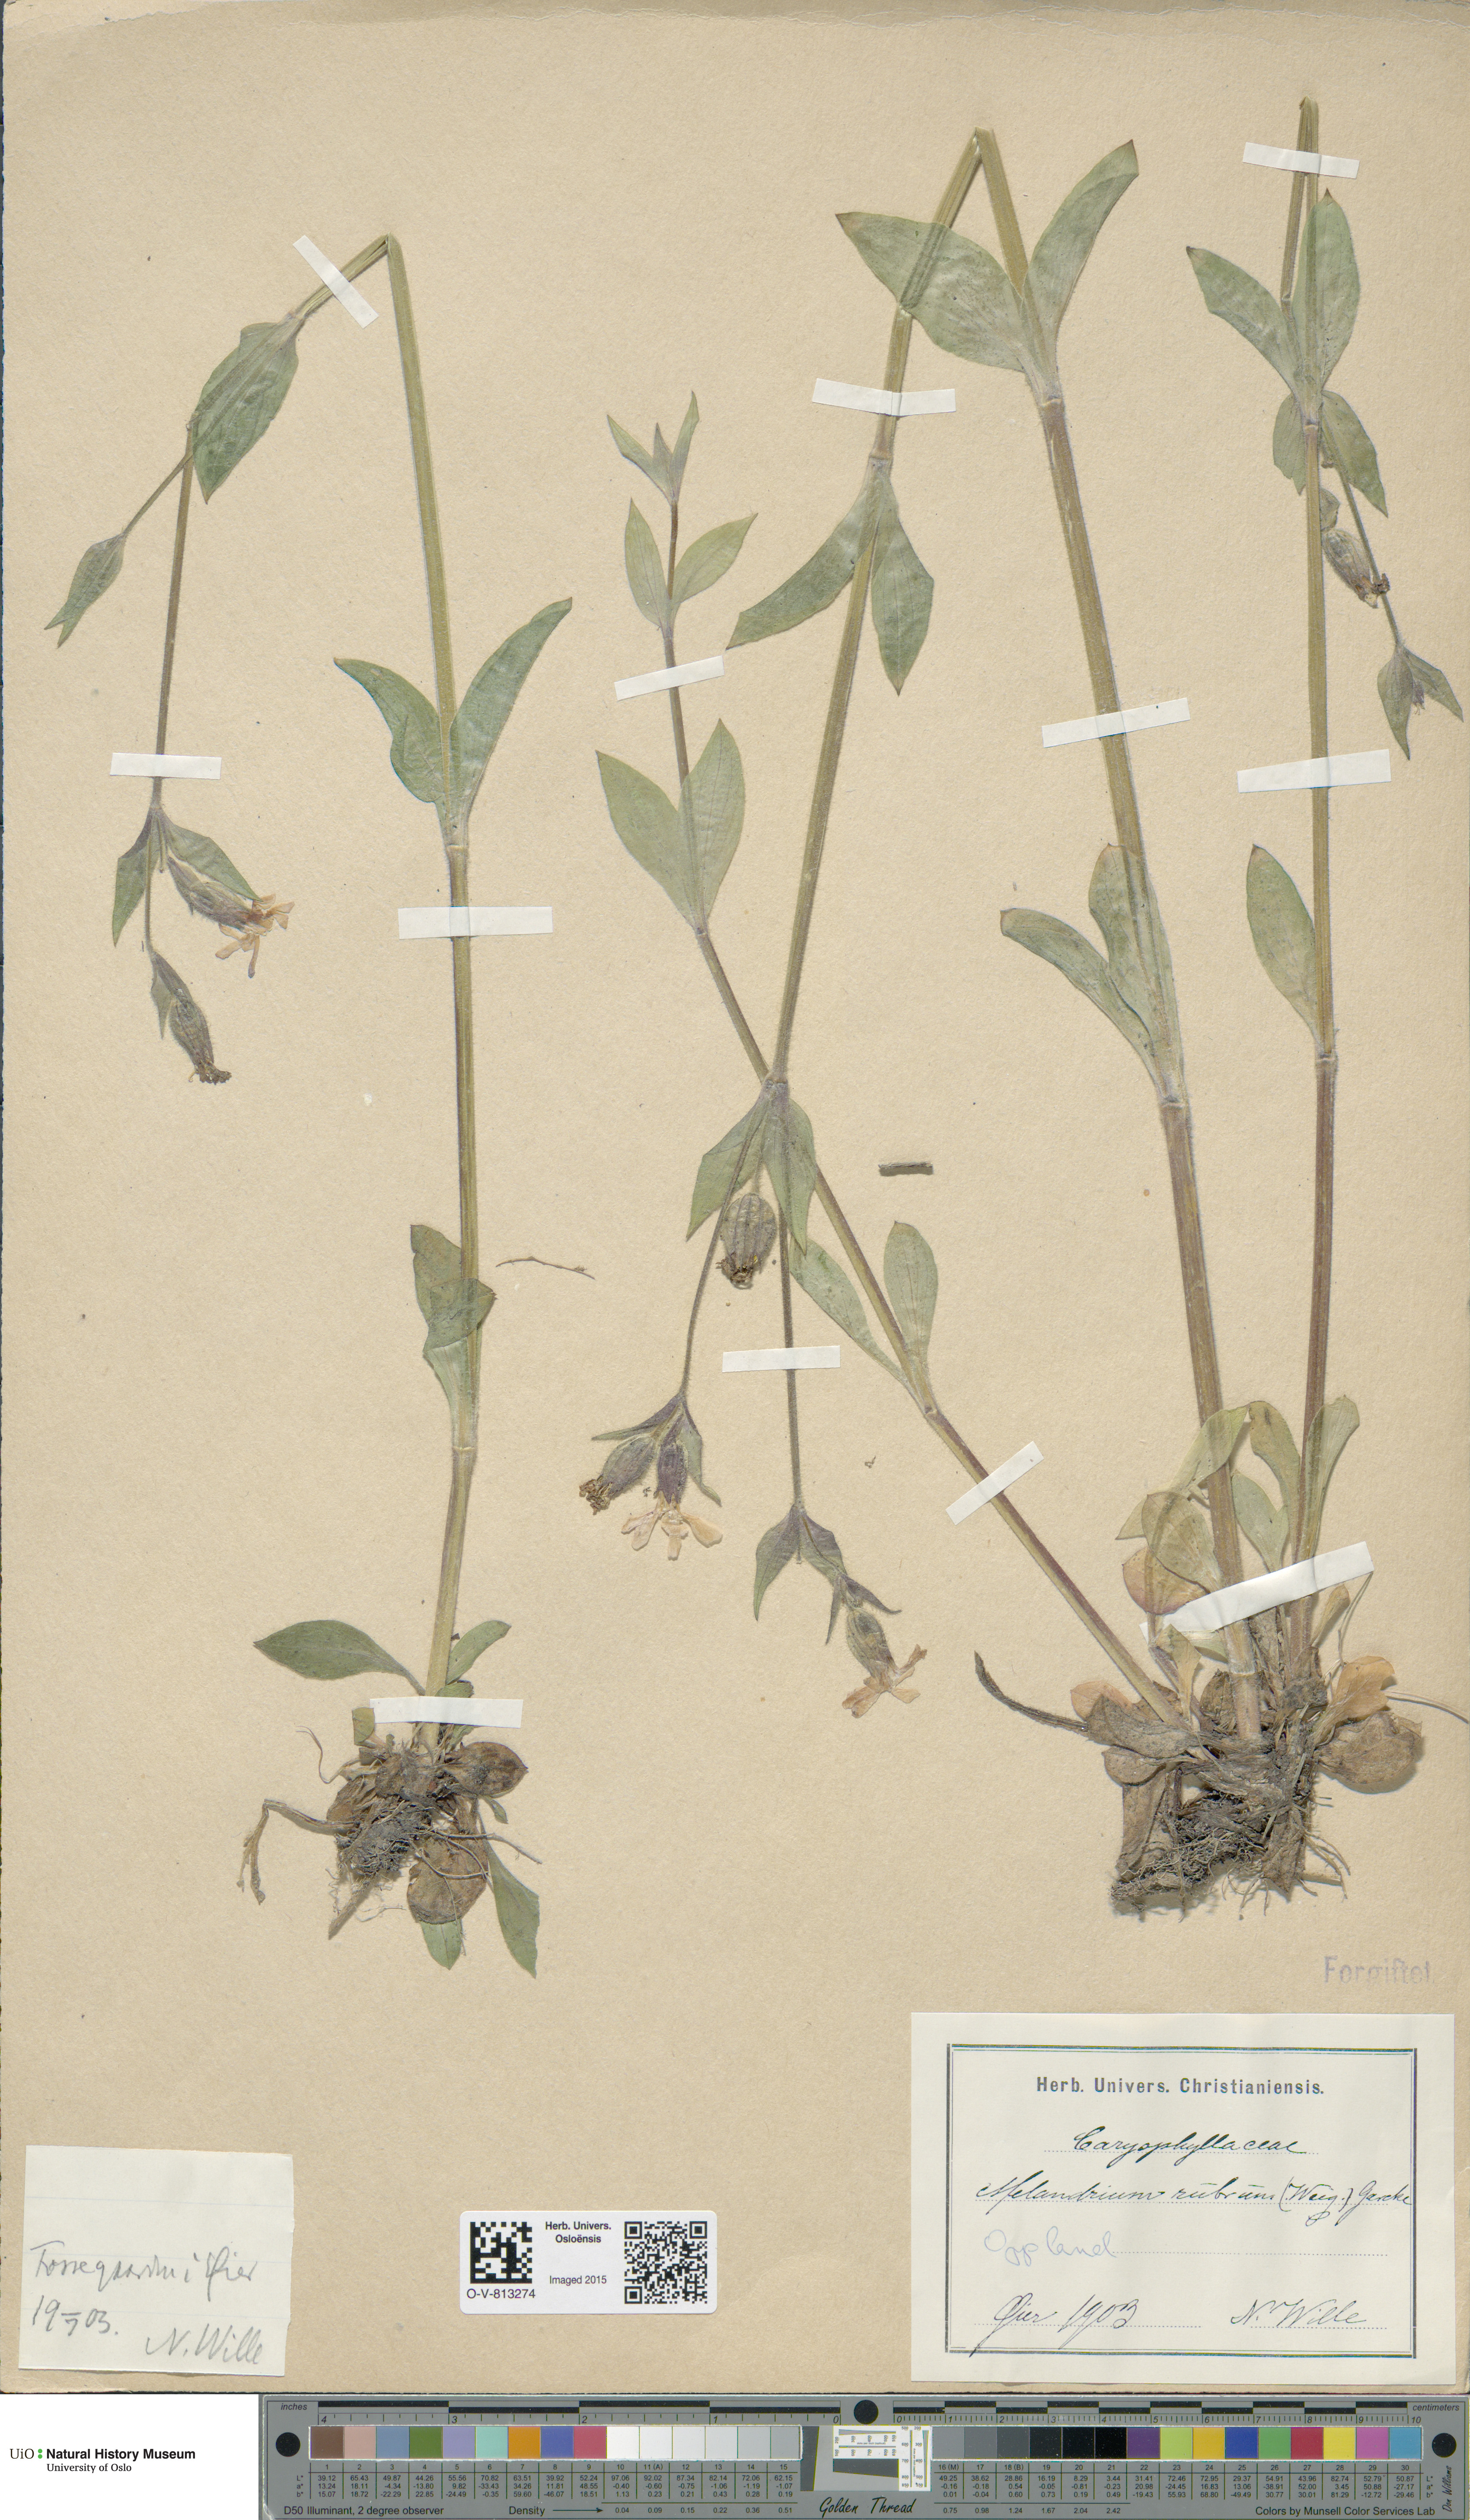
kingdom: Plantae
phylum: Tracheophyta
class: Magnoliopsida
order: Caryophyllales
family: Caryophyllaceae
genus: Silene
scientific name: Silene dioica
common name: Red campion
